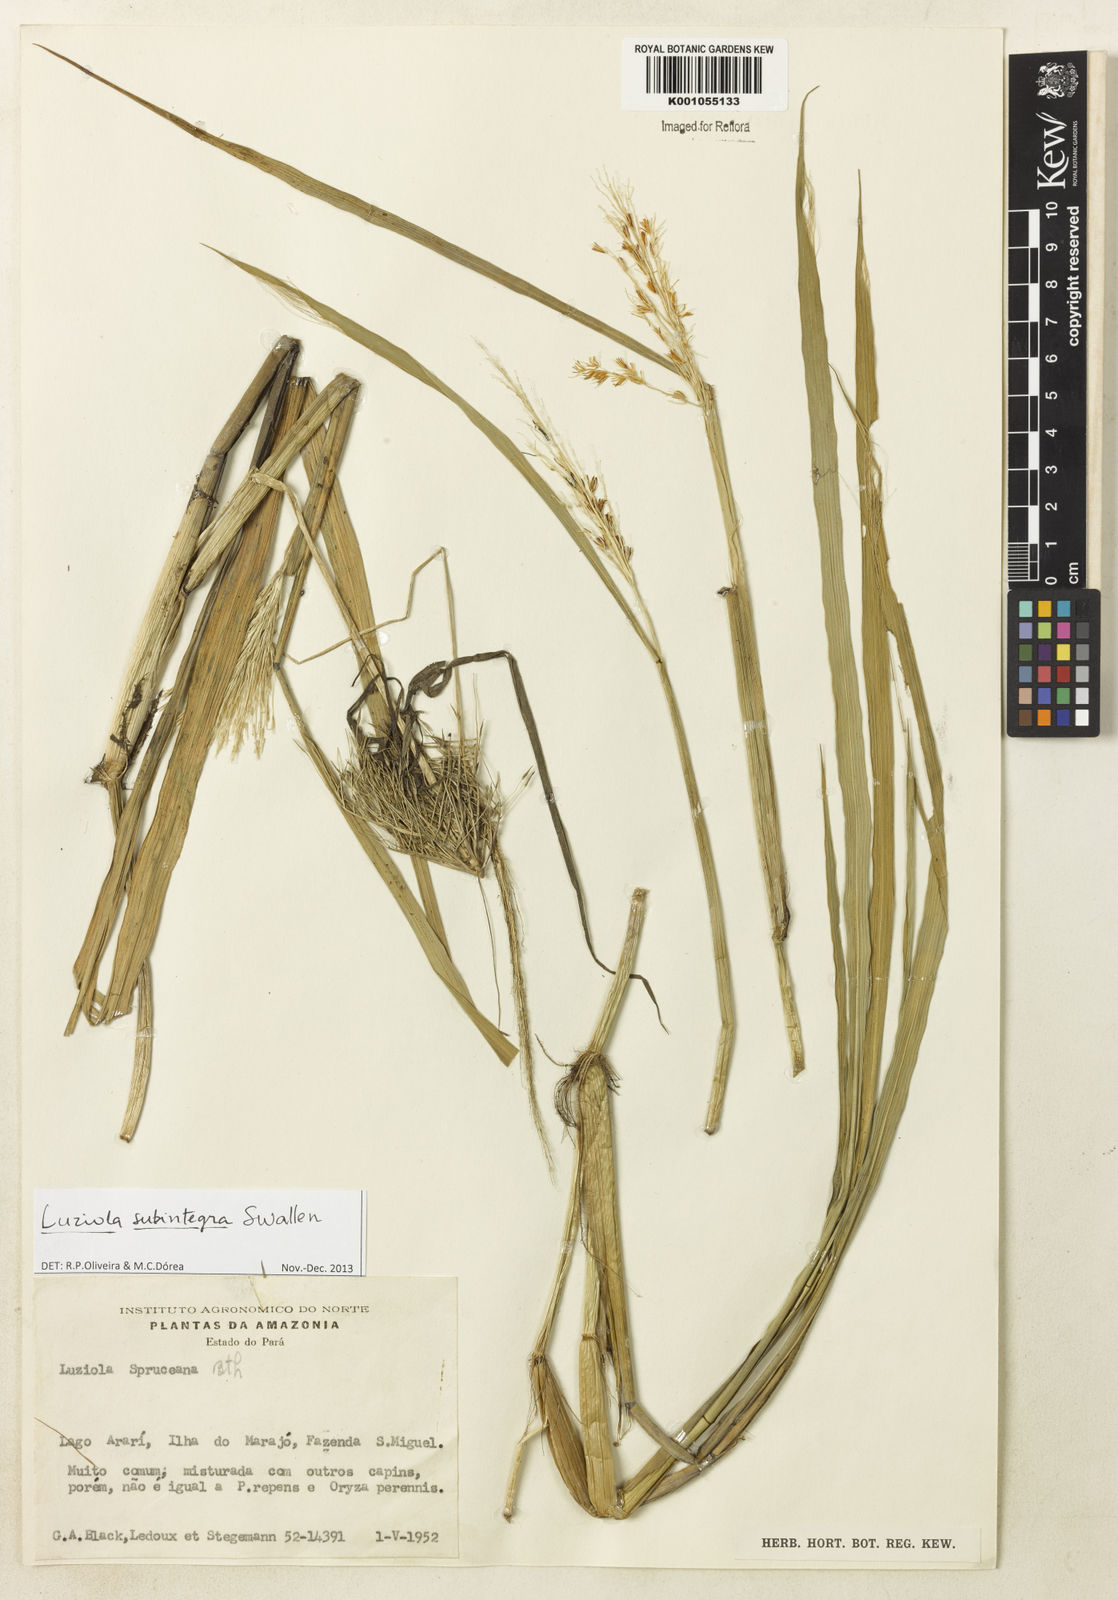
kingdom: Plantae
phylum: Tracheophyta
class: Liliopsida
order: Poales
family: Poaceae
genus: Luziola
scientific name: Luziola subintegra
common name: Large watergrass
